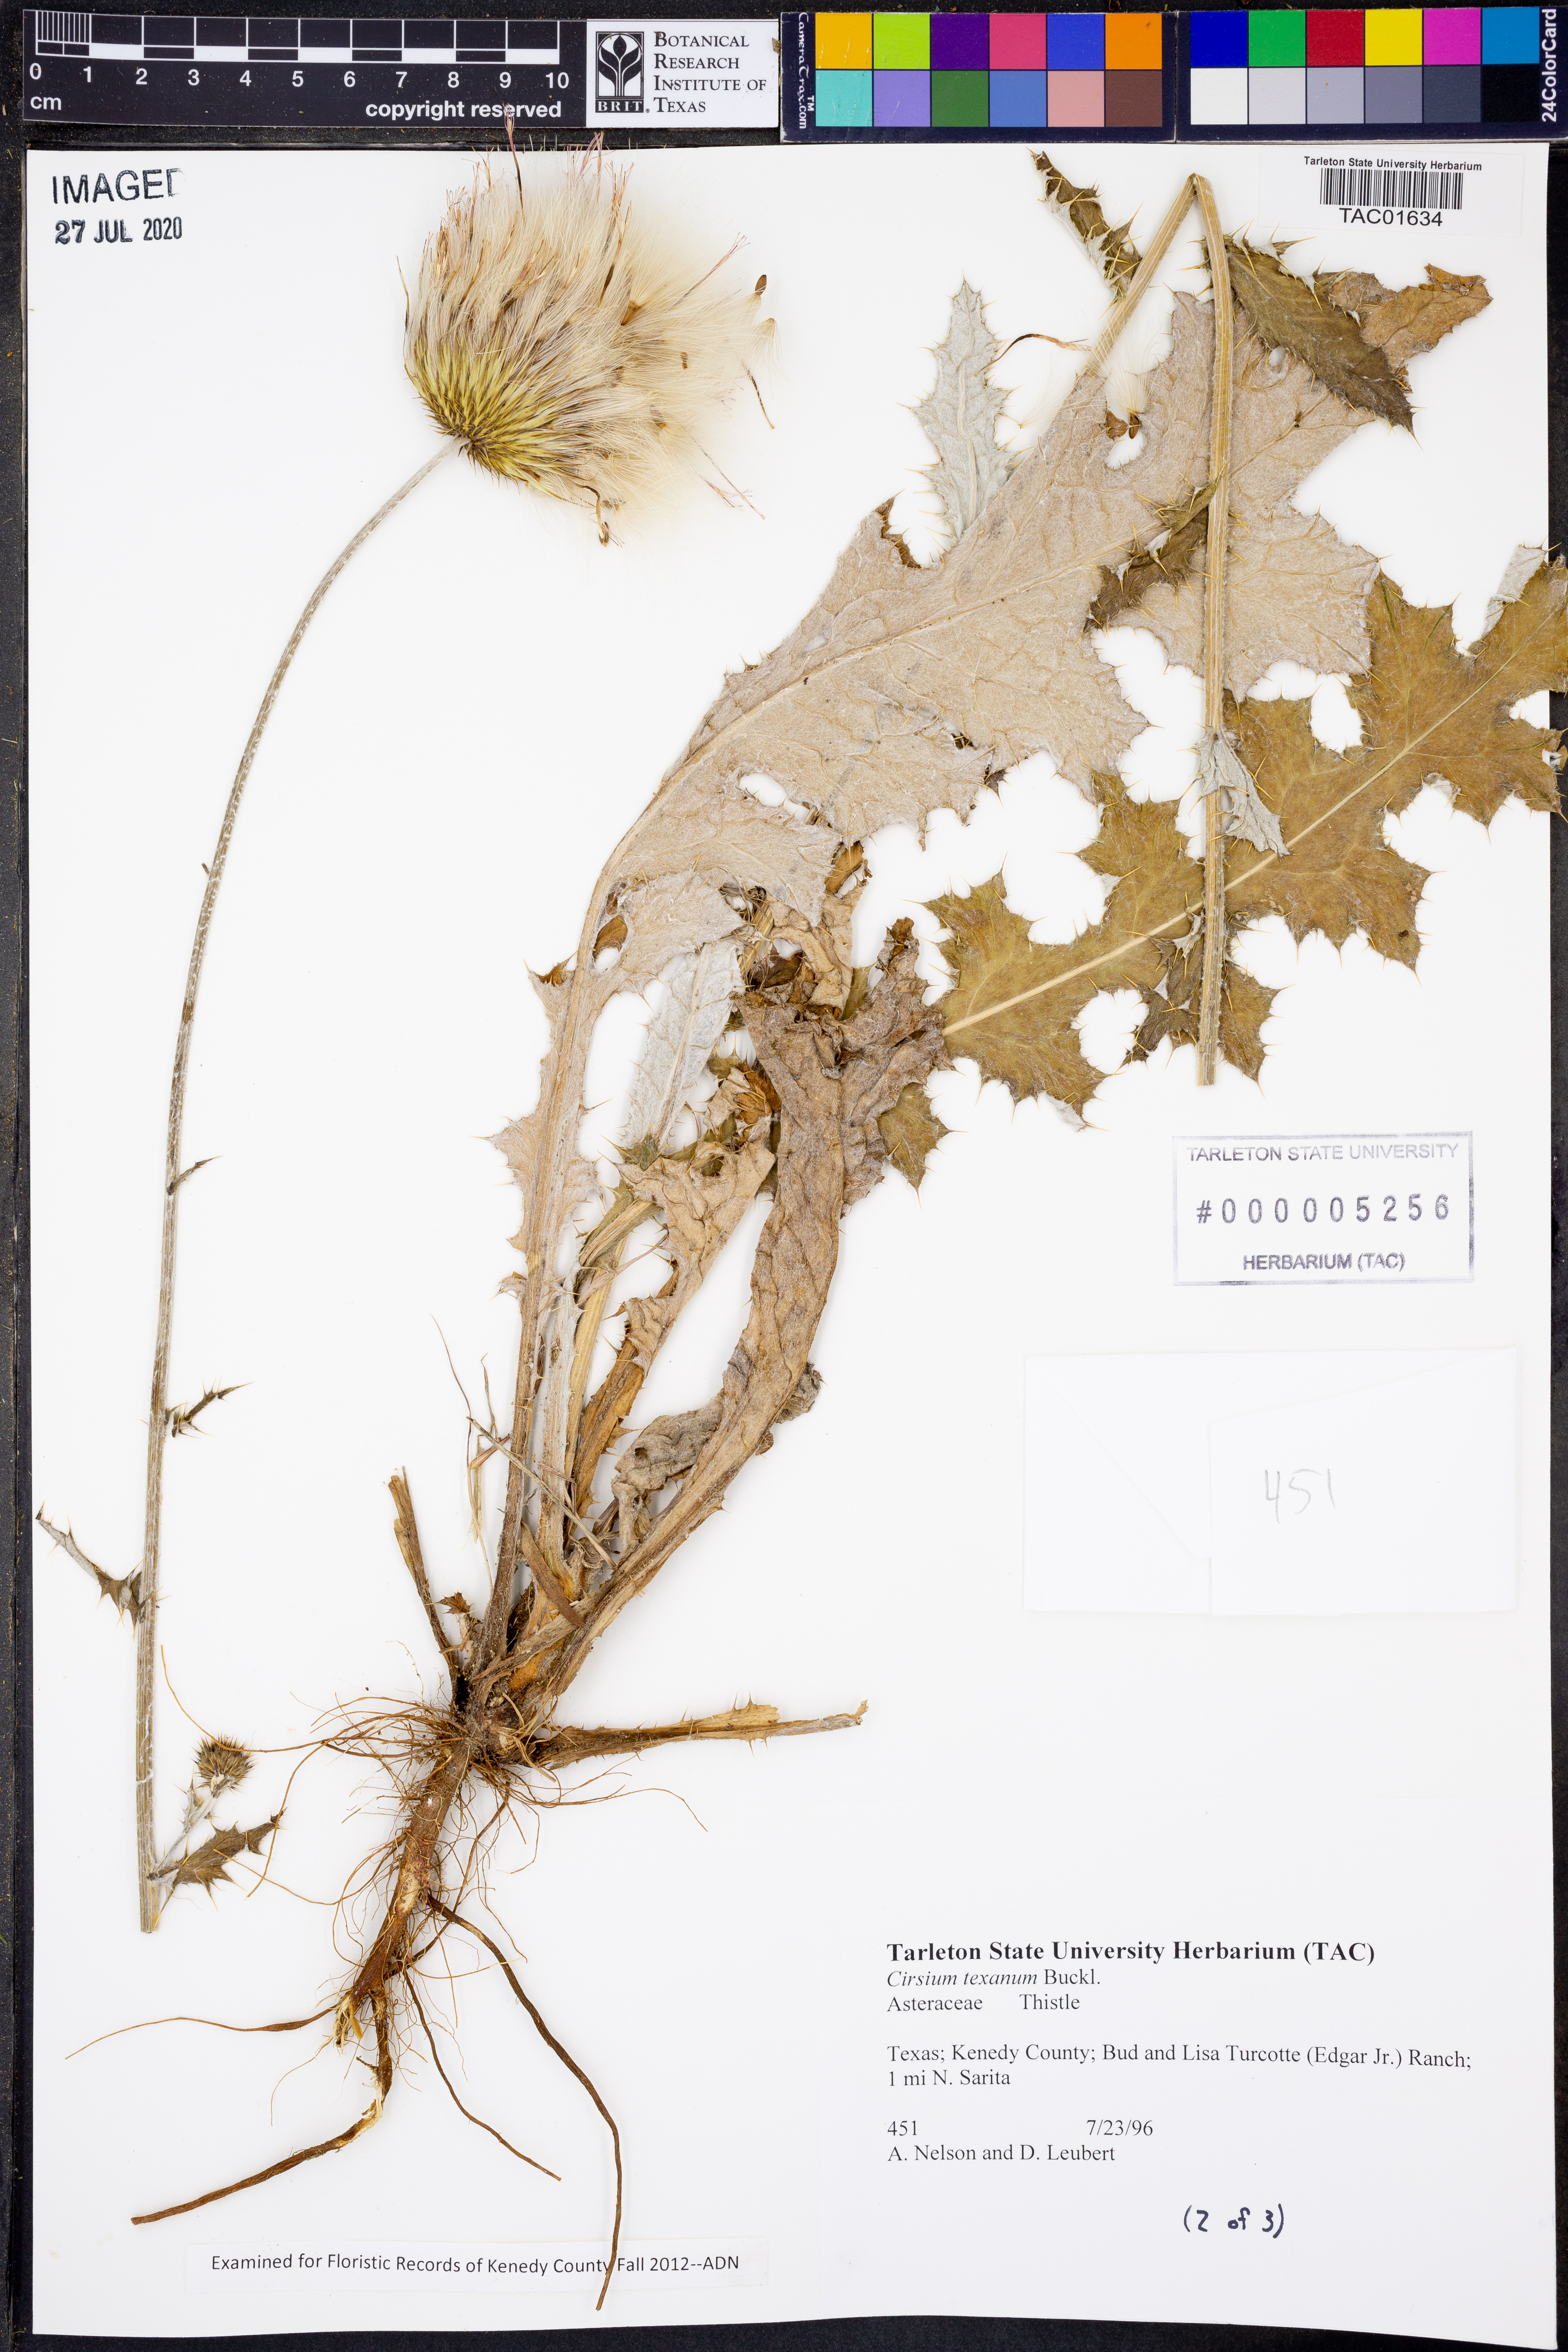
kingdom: Plantae
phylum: Tracheophyta
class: Magnoliopsida
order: Asterales
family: Asteraceae
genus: Cirsium
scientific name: Cirsium texanum
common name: Texas purple thistle
